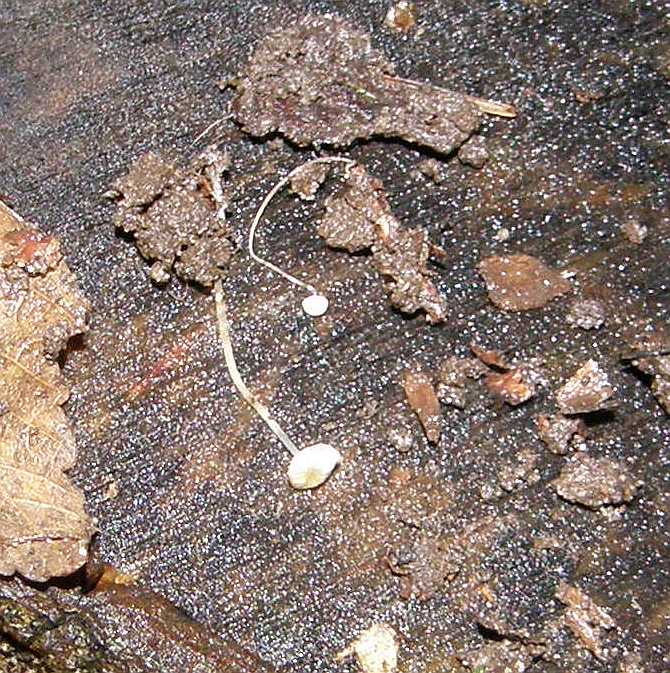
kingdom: Fungi
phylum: Basidiomycota
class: Agaricomycetes
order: Agaricales
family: Porotheleaceae
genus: Phloeomana
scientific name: Phloeomana speirea
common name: kvist-huesvamp
